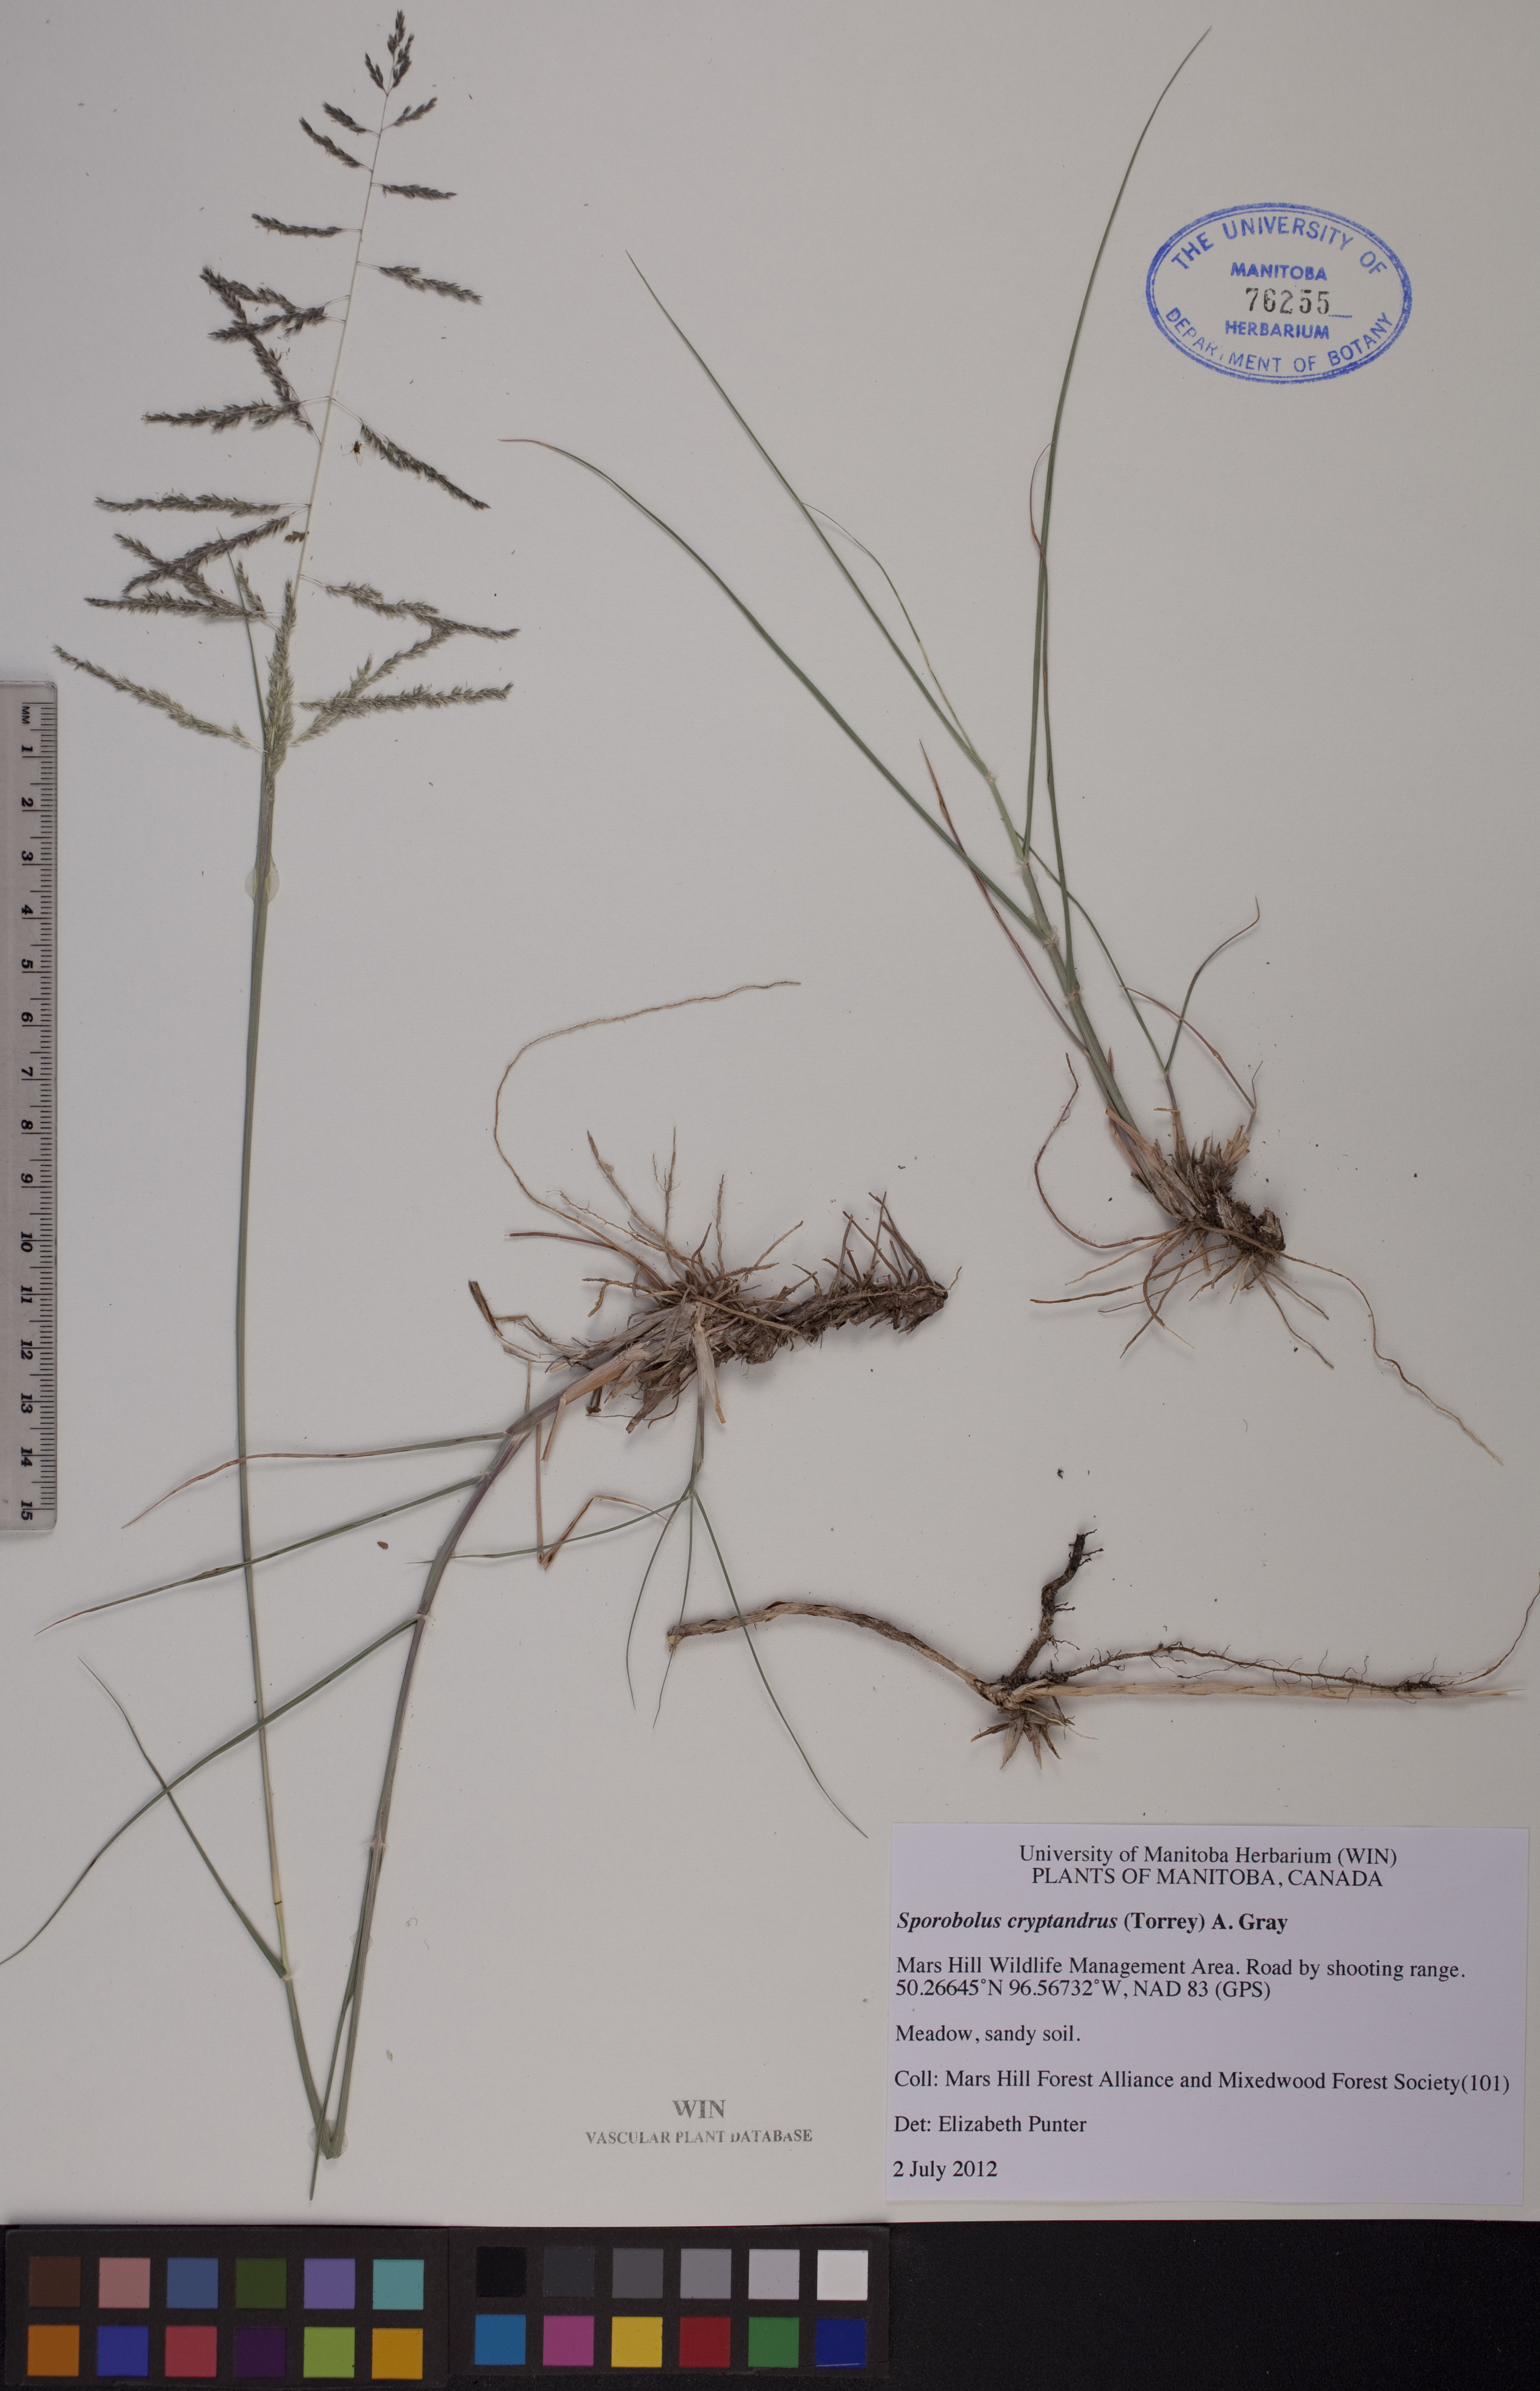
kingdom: Plantae
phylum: Tracheophyta
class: Liliopsida
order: Poales
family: Poaceae
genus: Sporobolus
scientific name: Sporobolus cryptandrus
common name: Sand dropseed
